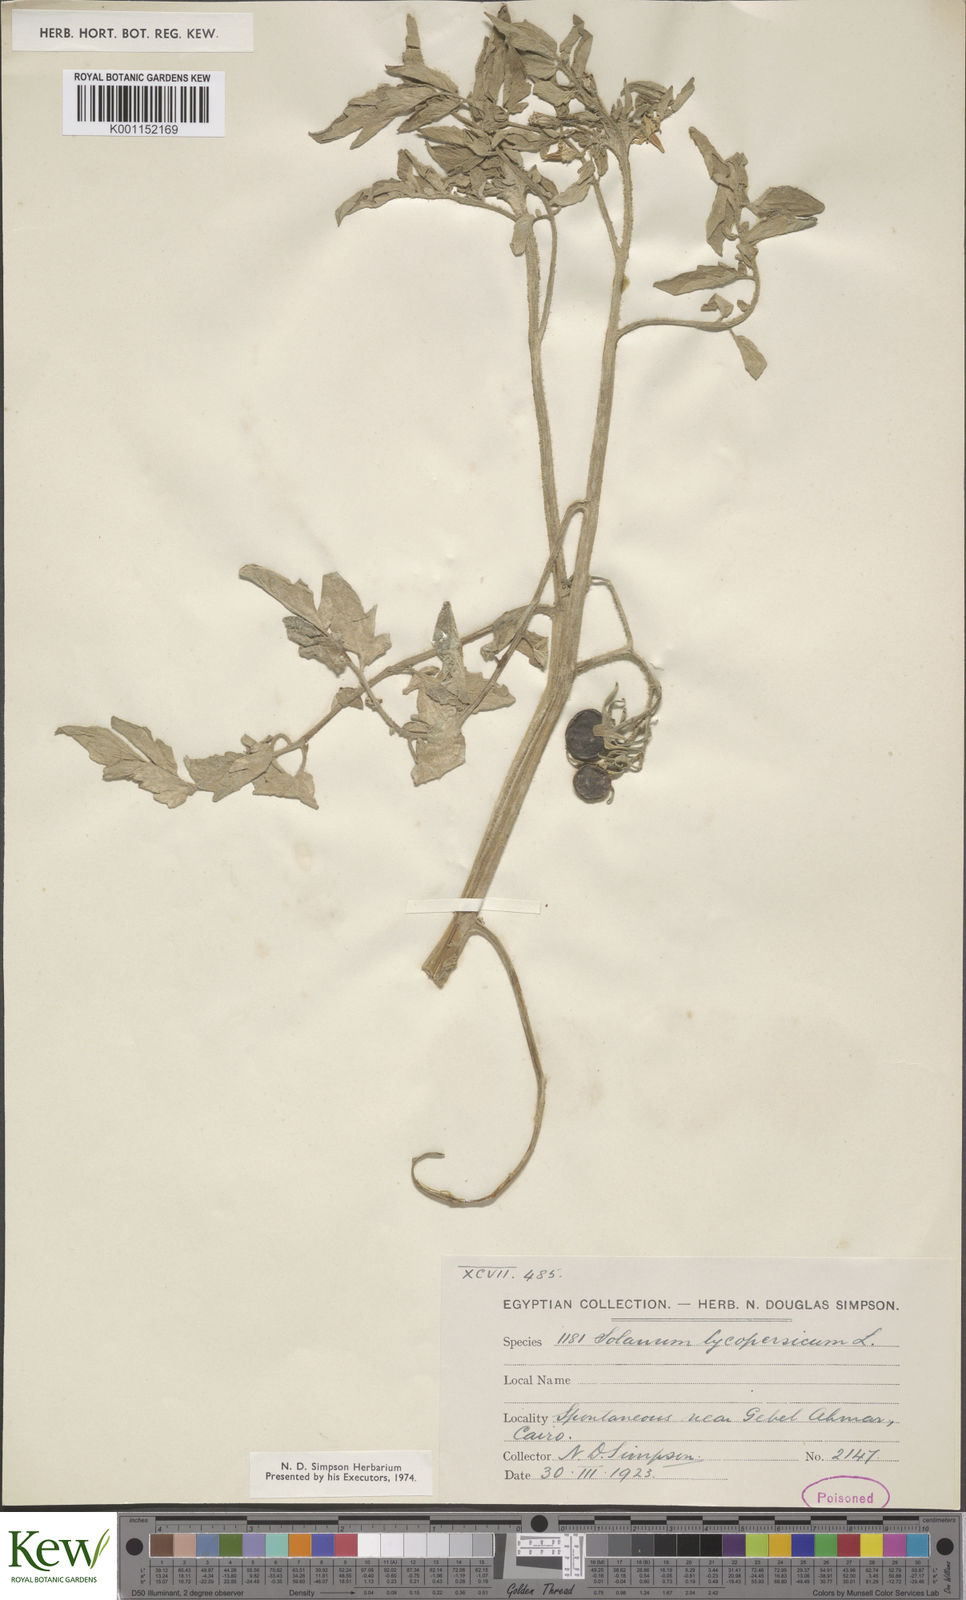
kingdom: Plantae
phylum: Tracheophyta
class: Magnoliopsida
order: Solanales
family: Solanaceae
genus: Solanum
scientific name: Solanum lycopersicum
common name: Garden tomato
